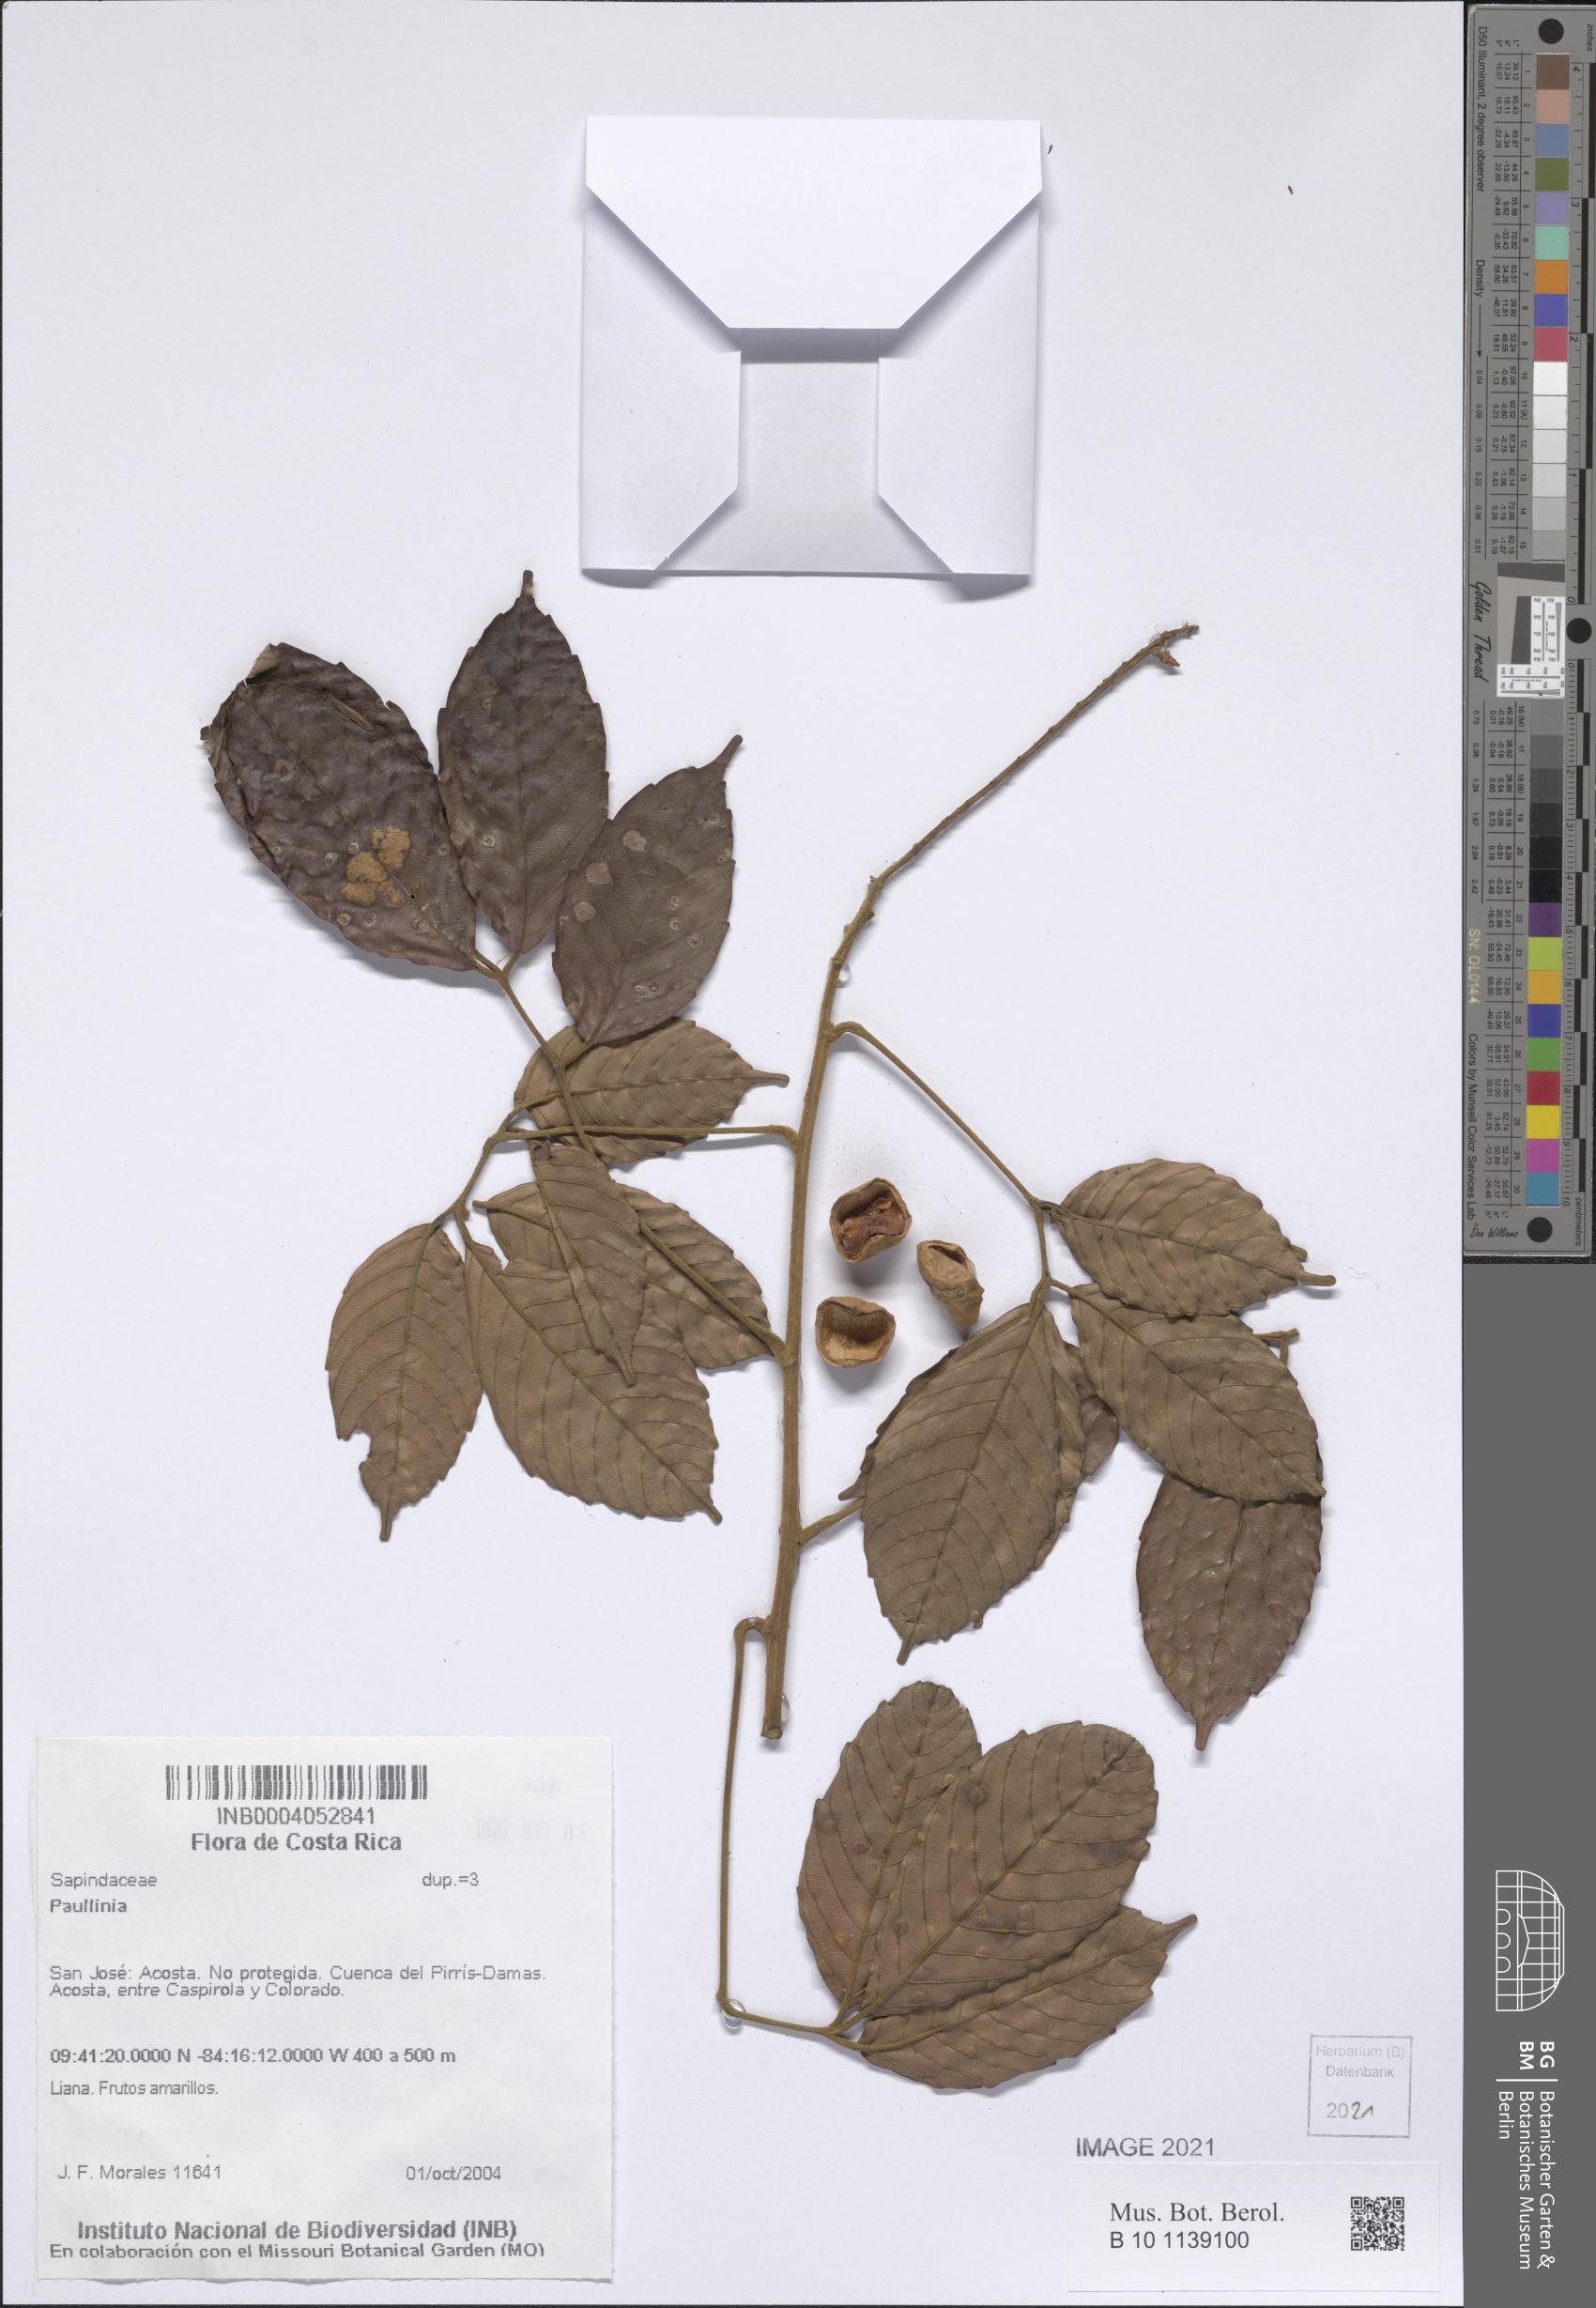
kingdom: Plantae
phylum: Tracheophyta
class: Magnoliopsida
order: Sapindales
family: Sapindaceae
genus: Paullinia
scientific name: Paullinia
